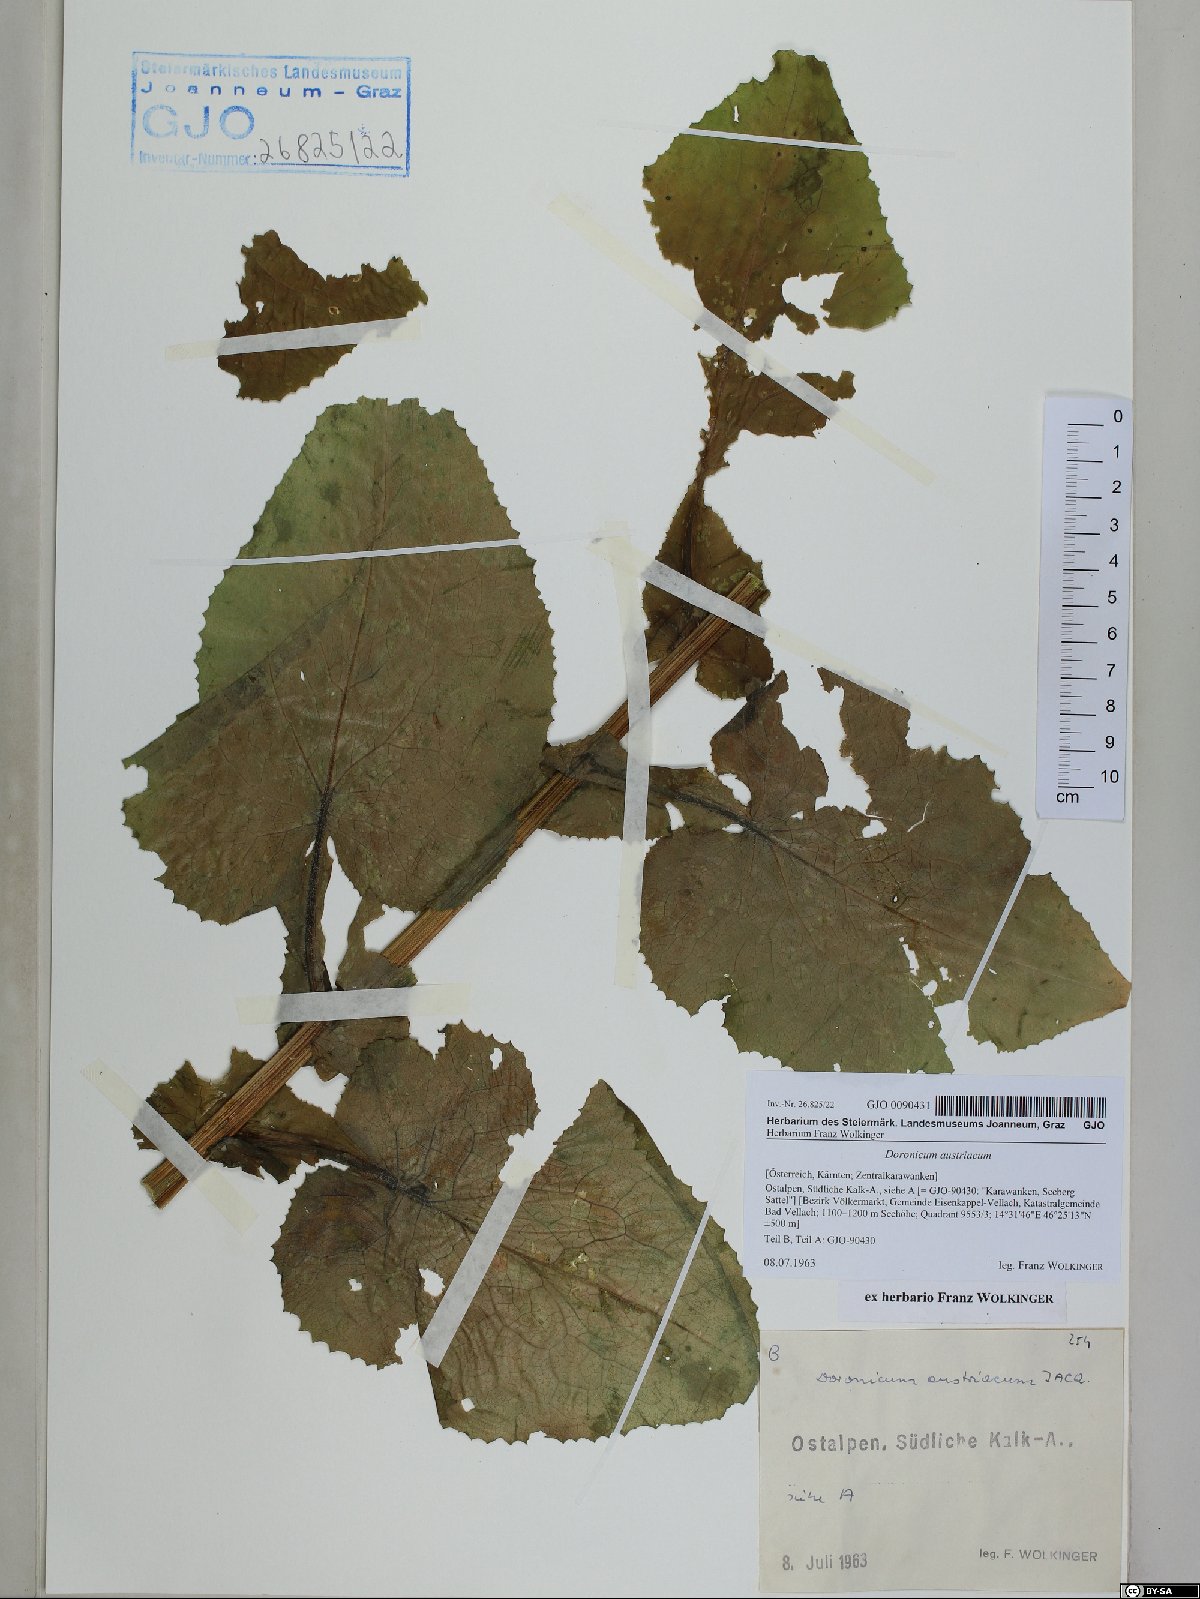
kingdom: Plantae
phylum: Tracheophyta
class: Magnoliopsida
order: Asterales
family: Asteraceae
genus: Doronicum
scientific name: Doronicum austriacum
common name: Austrian leopard's-bane
